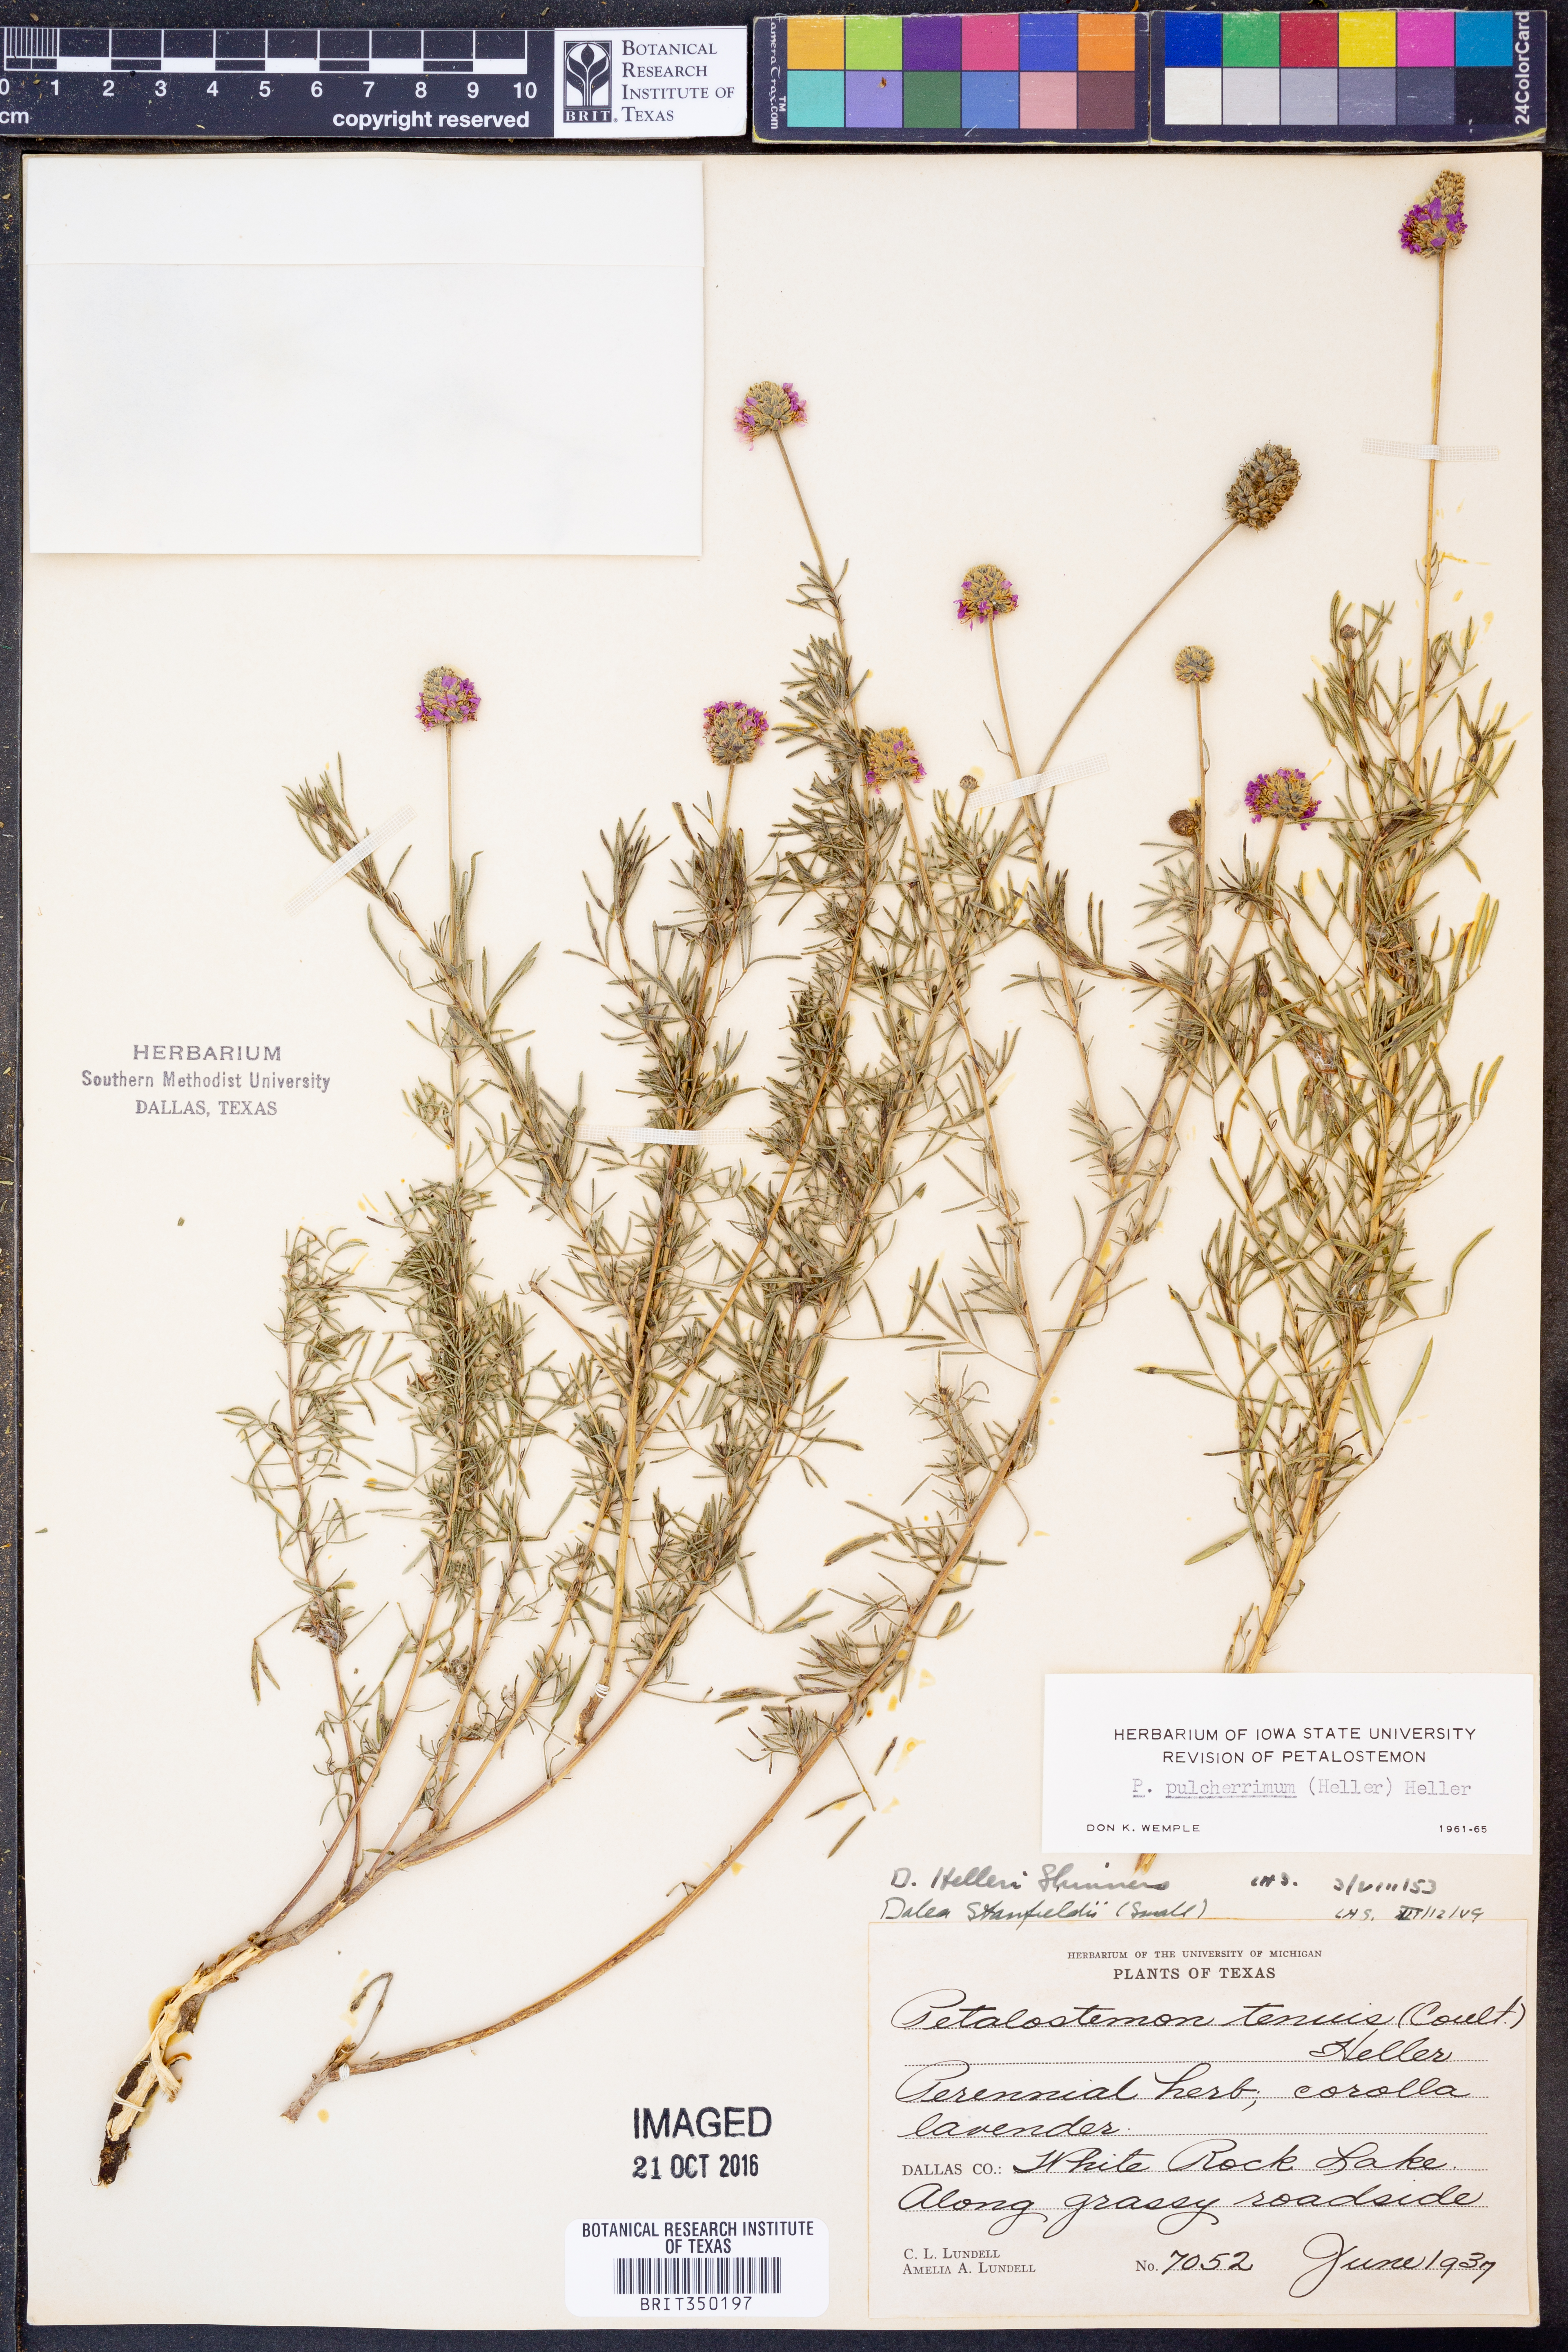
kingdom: Plantae
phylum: Tracheophyta
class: Magnoliopsida
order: Fabales
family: Fabaceae
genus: Dalea
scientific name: Dalea compacta
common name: Compact prairie-clover
